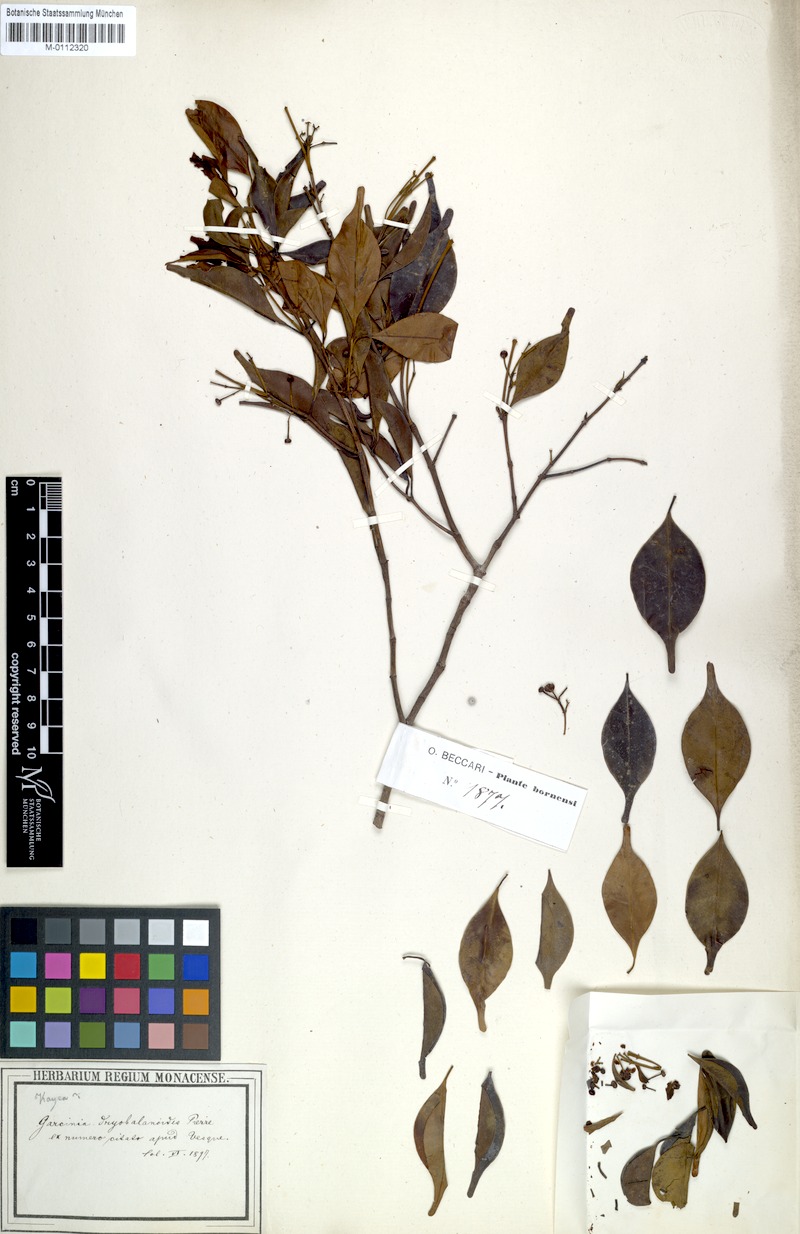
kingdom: Plantae
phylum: Tracheophyta
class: Magnoliopsida
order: Malpighiales
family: Clusiaceae
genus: Garcinia
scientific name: Garcinia dryobalanoides
